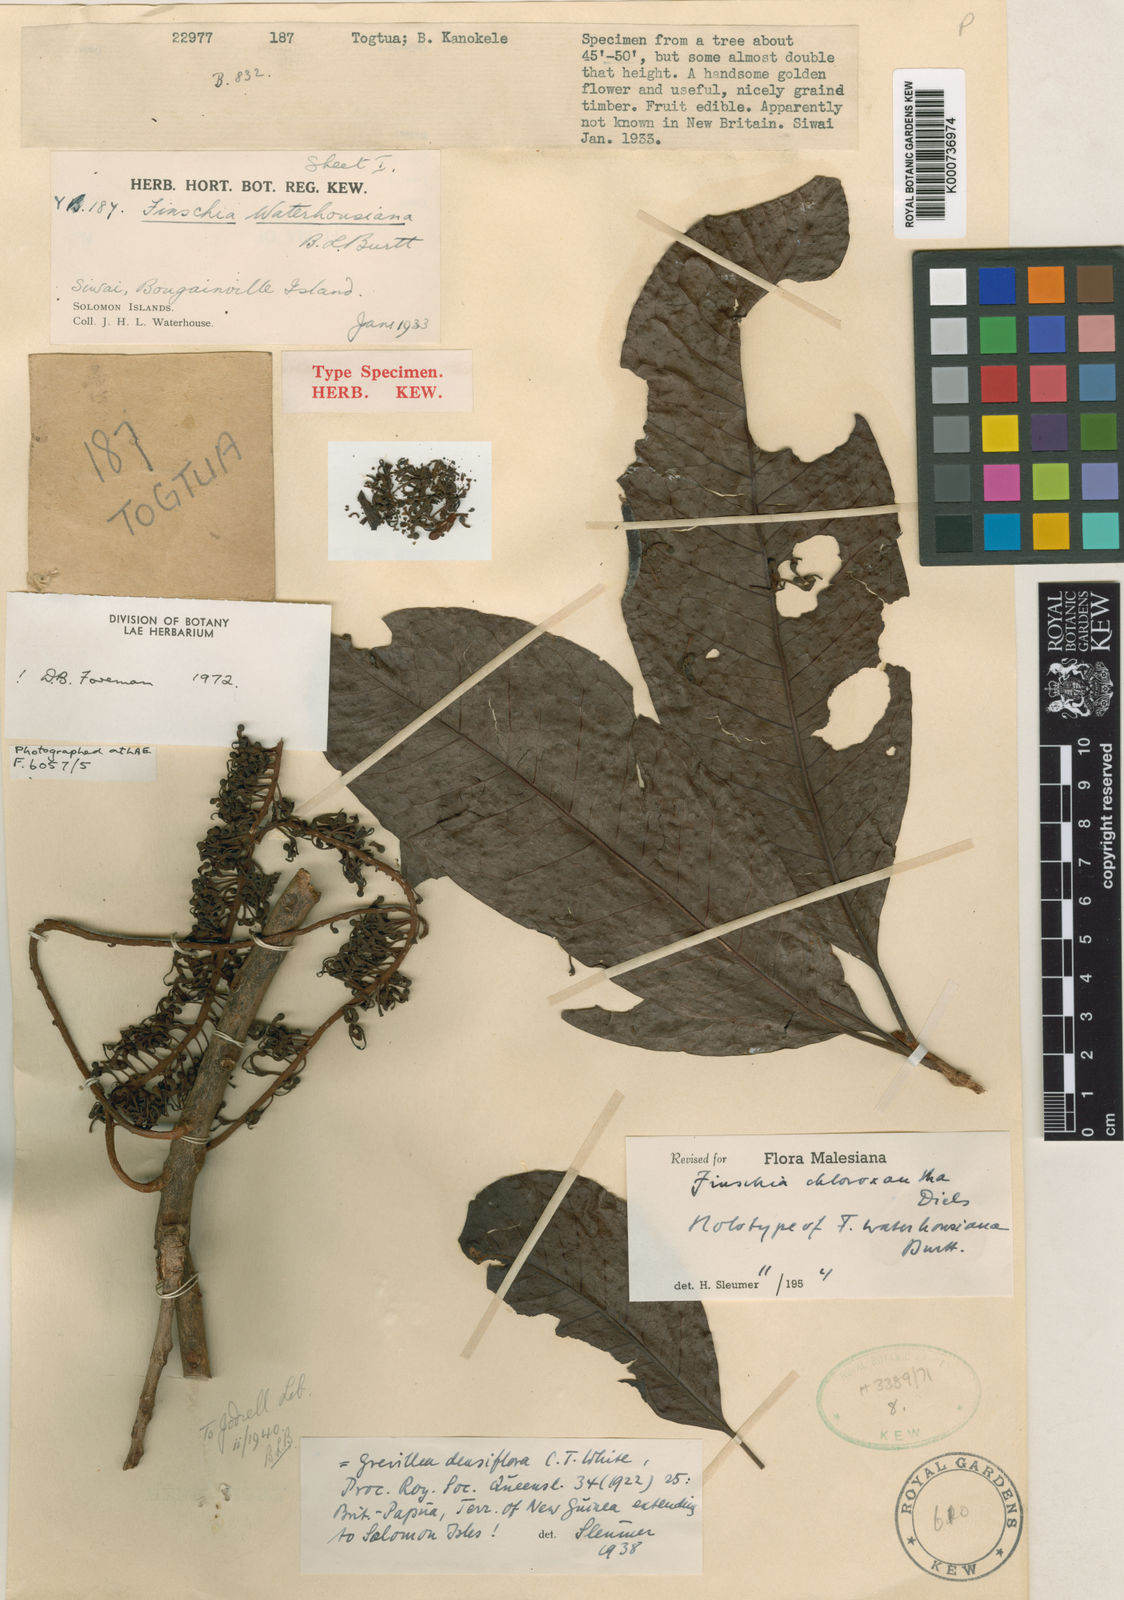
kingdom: Plantae
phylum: Tracheophyta
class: Magnoliopsida
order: Proteales
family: Proteaceae
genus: Finschia
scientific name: Finschia chloroxantha
